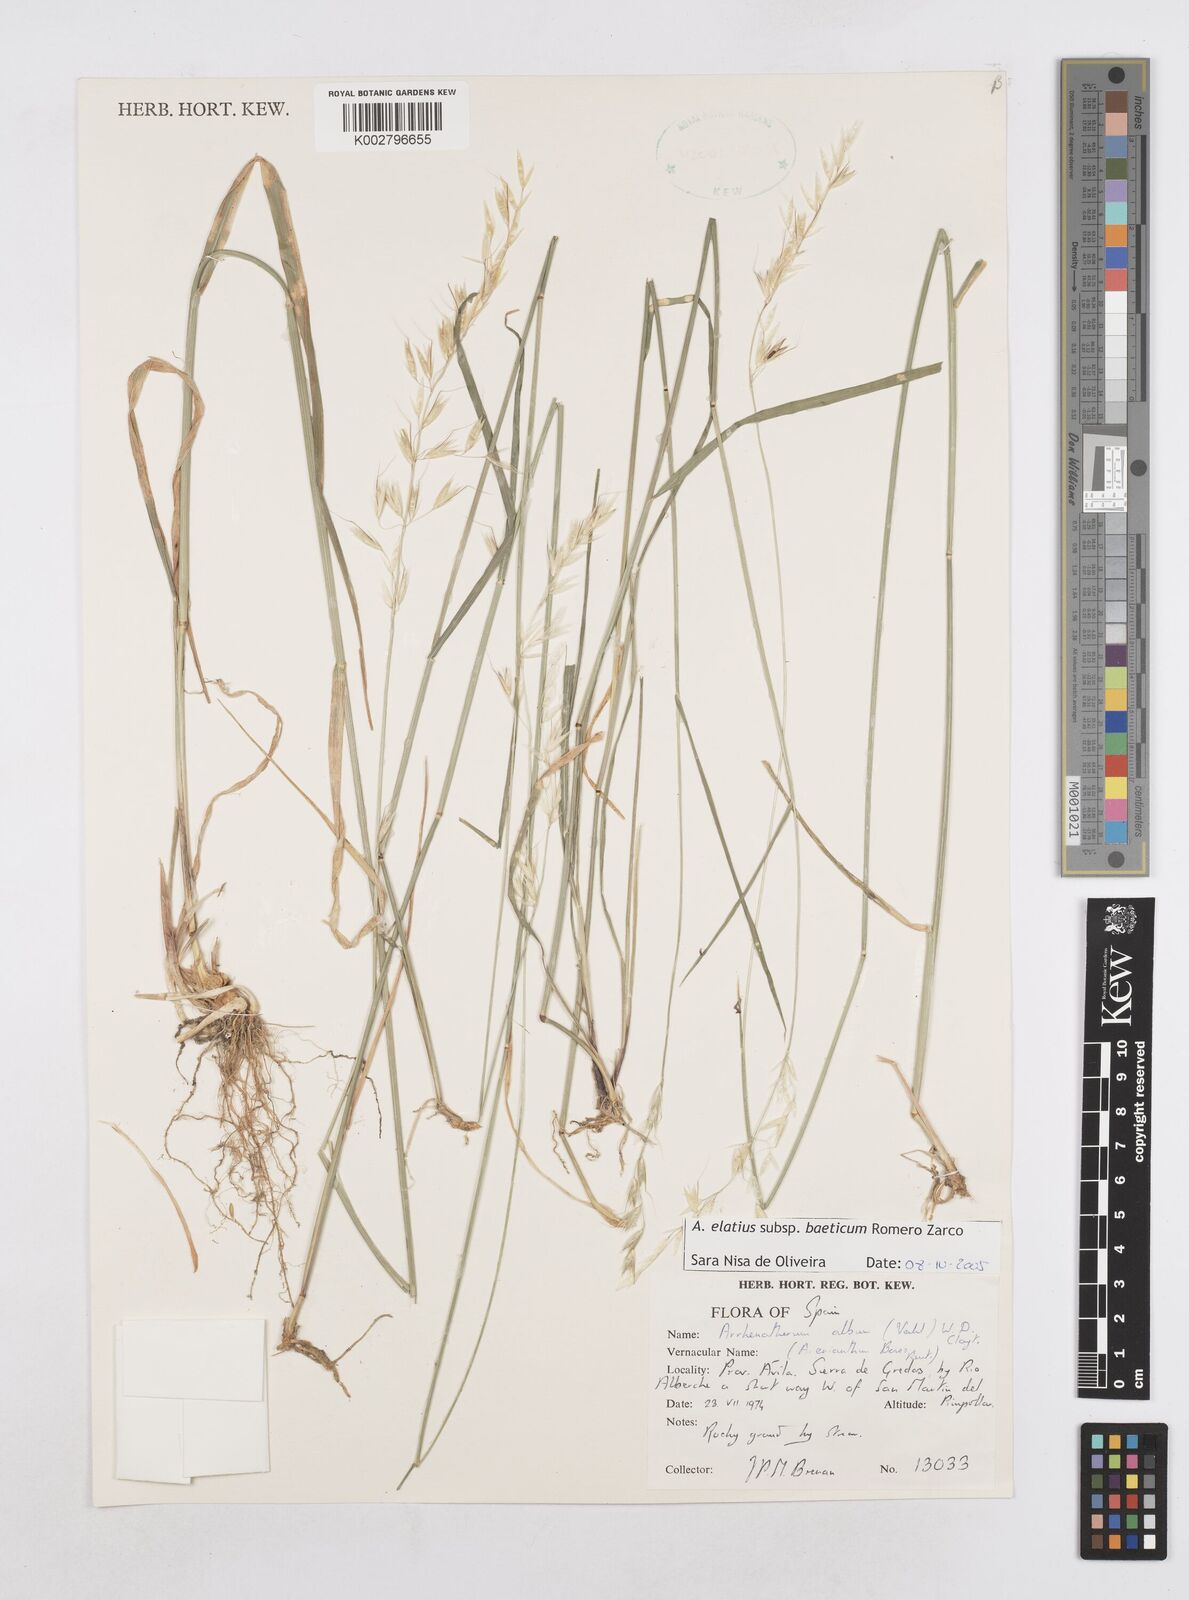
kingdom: Plantae
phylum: Tracheophyta
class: Liliopsida
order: Poales
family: Poaceae
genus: Arrhenatherum
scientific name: Arrhenatherum elatius
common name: Tall oatgrass
